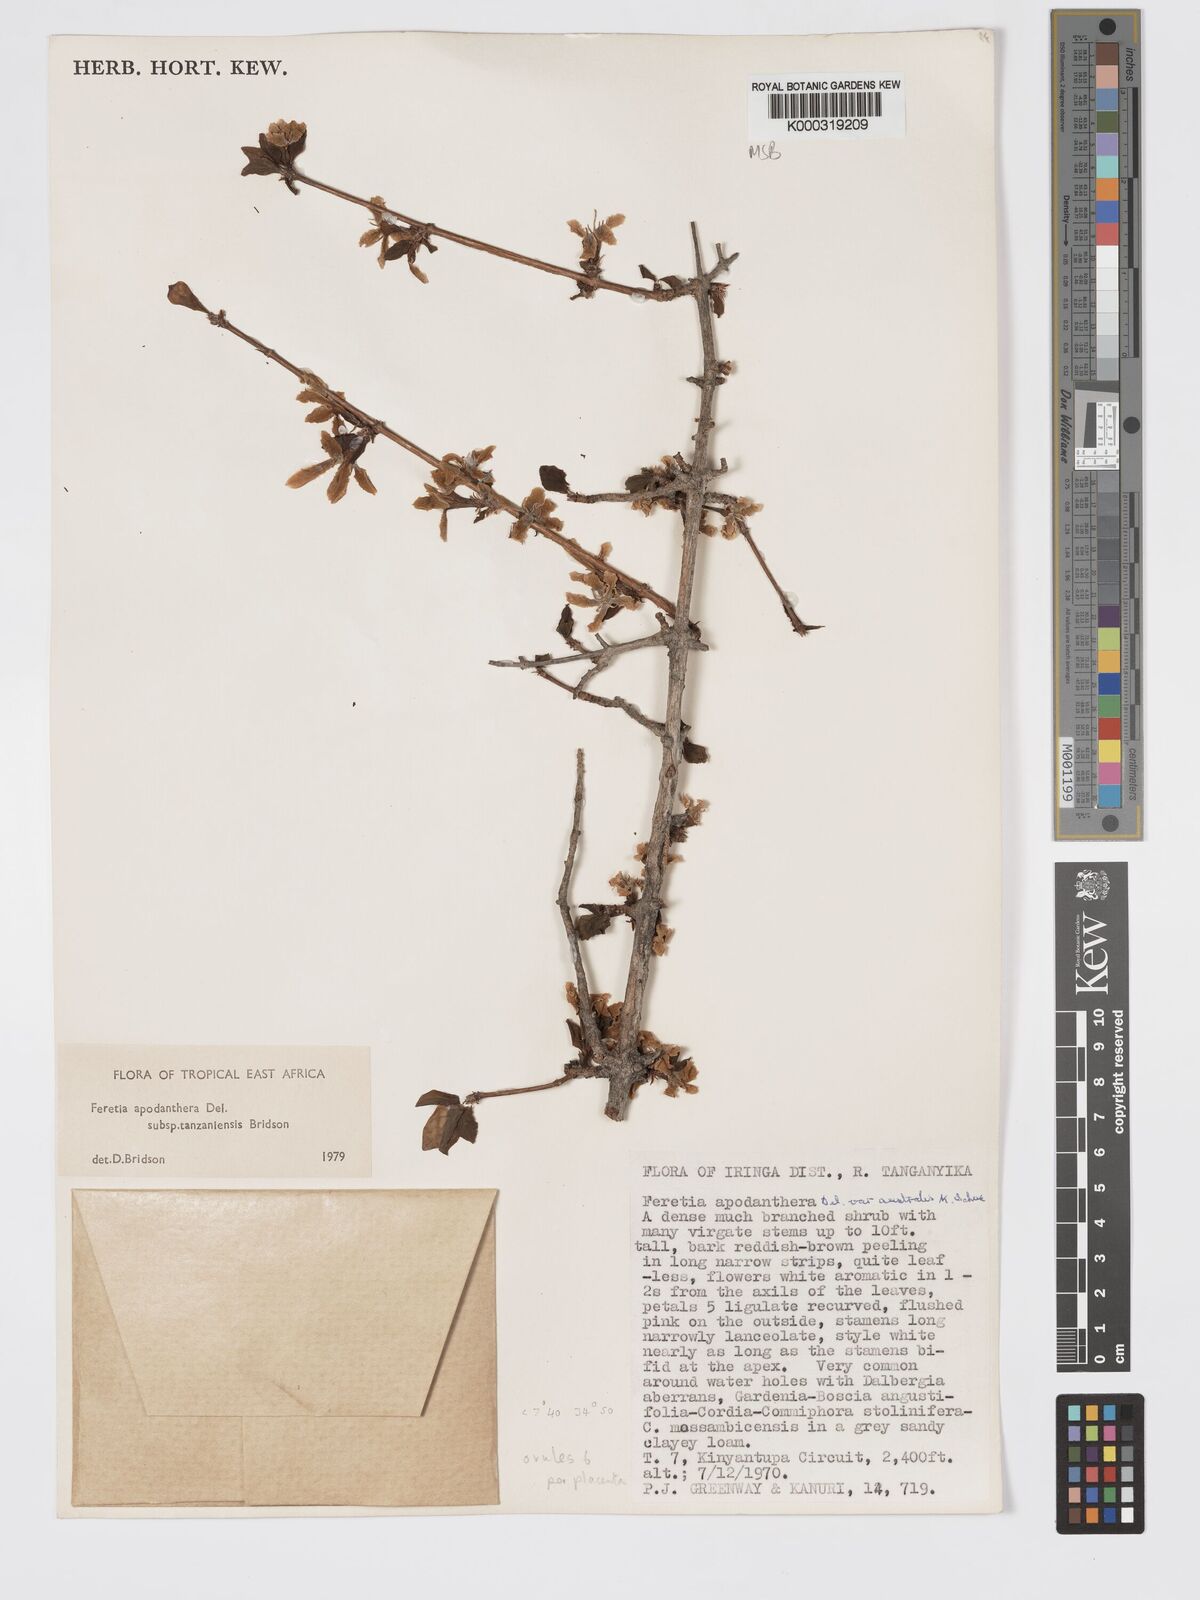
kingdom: Plantae
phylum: Tracheophyta
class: Magnoliopsida
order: Gentianales
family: Rubiaceae
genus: Feretia
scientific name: Feretia apodanthera
